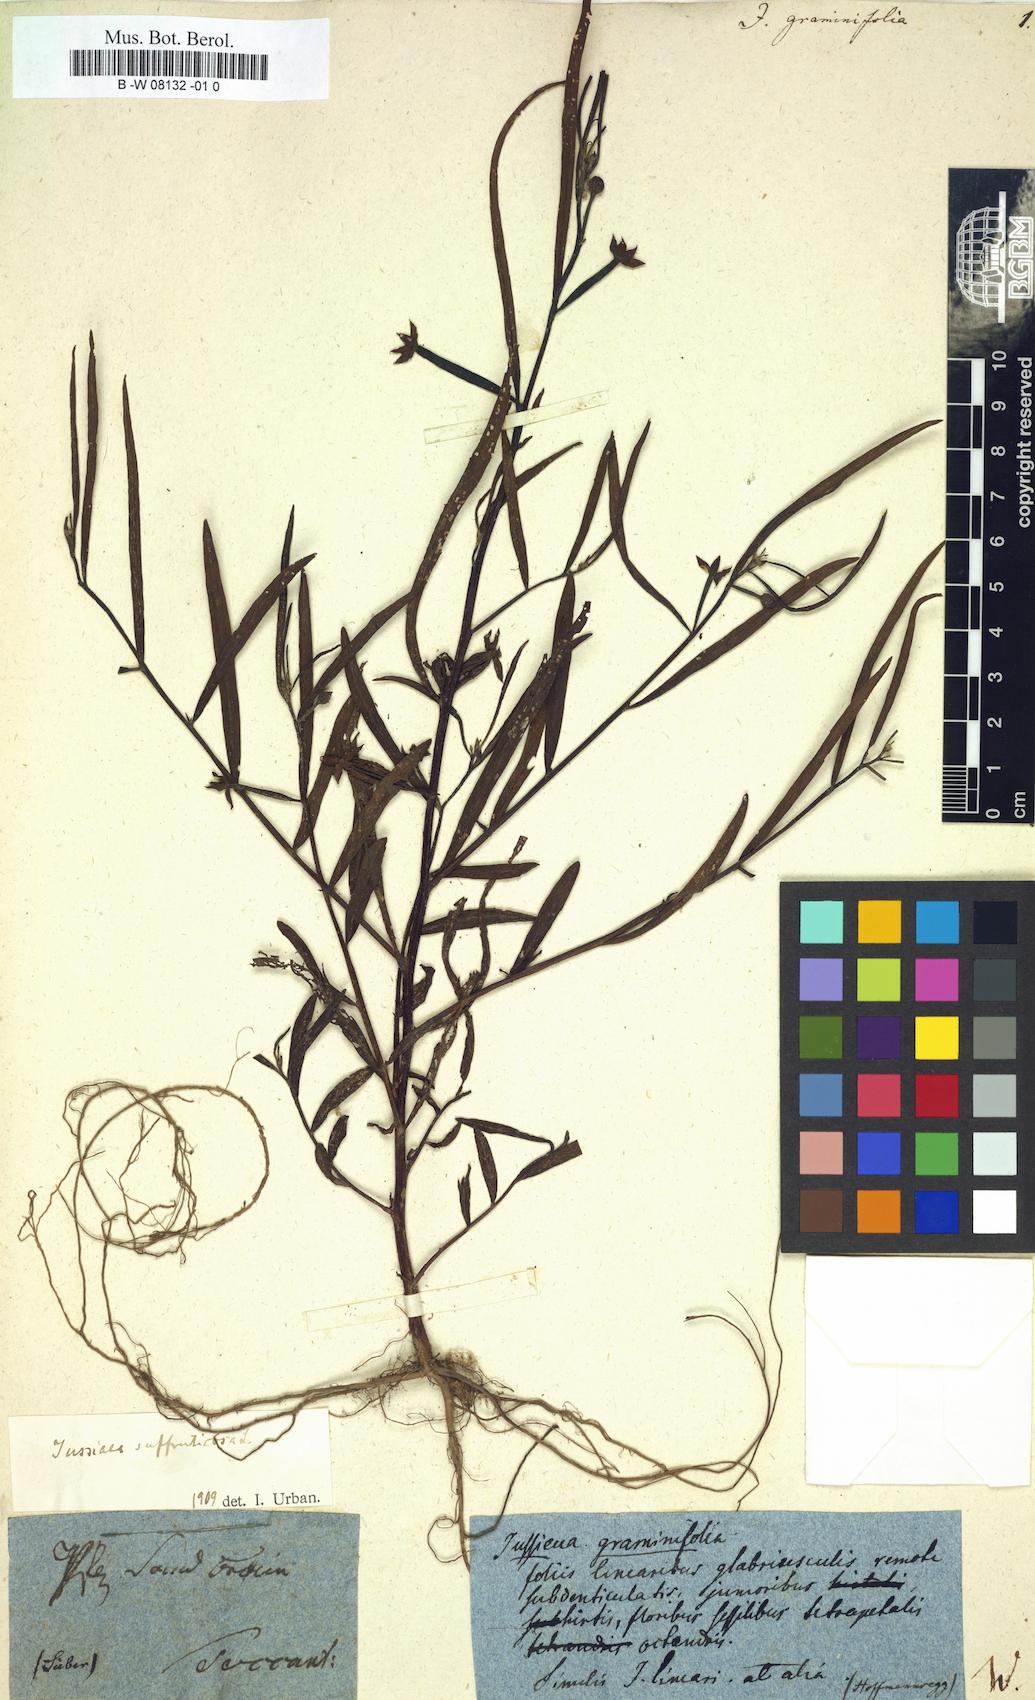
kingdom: Plantae
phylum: Tracheophyta
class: Magnoliopsida
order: Myrtales
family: Onagraceae
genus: Ludwigia
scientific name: Ludwigia
